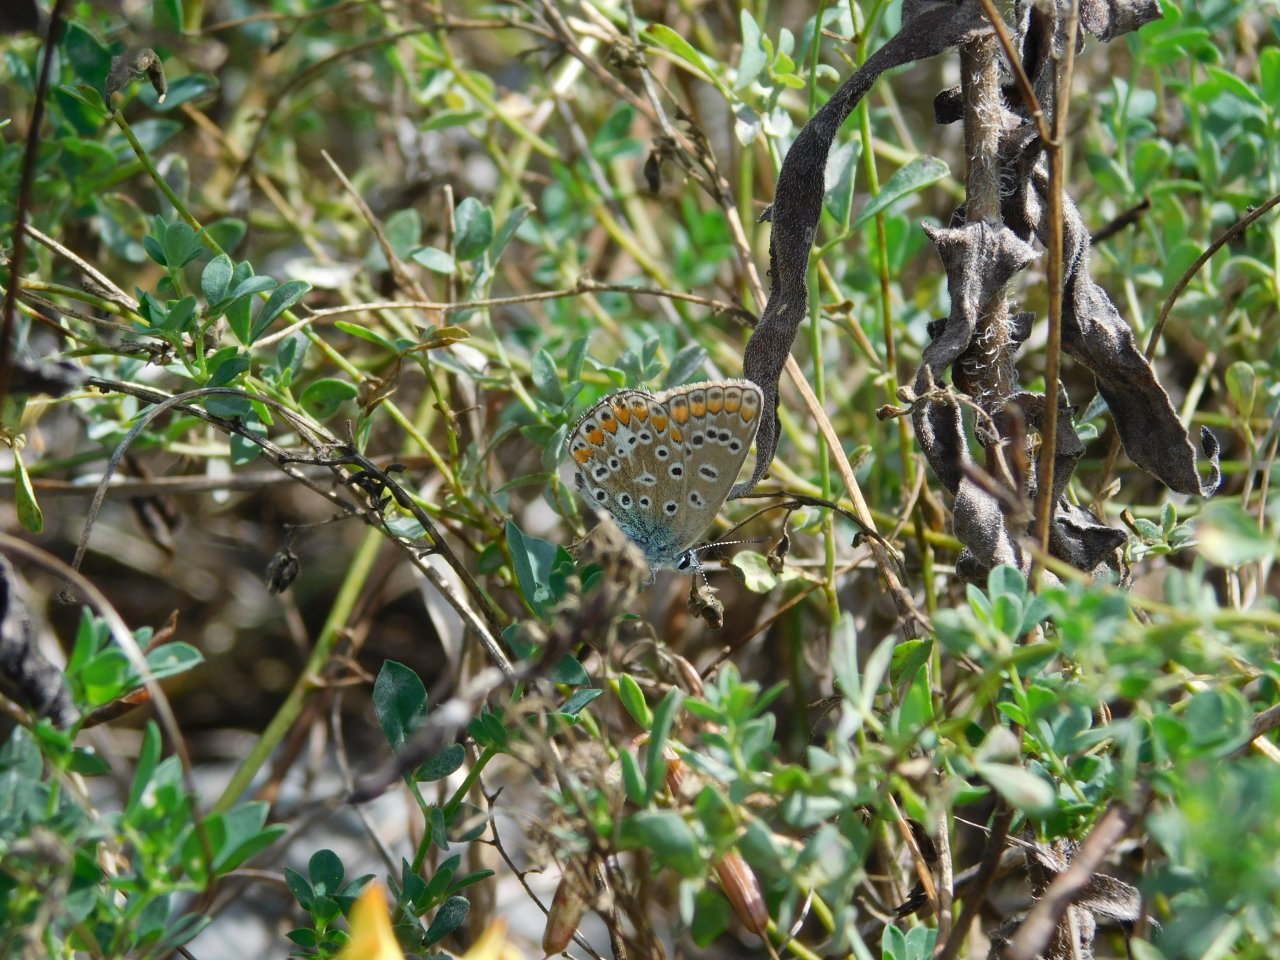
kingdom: Animalia
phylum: Arthropoda
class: Insecta
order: Lepidoptera
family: Lycaenidae
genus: Polyommatus
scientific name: Polyommatus icarus
